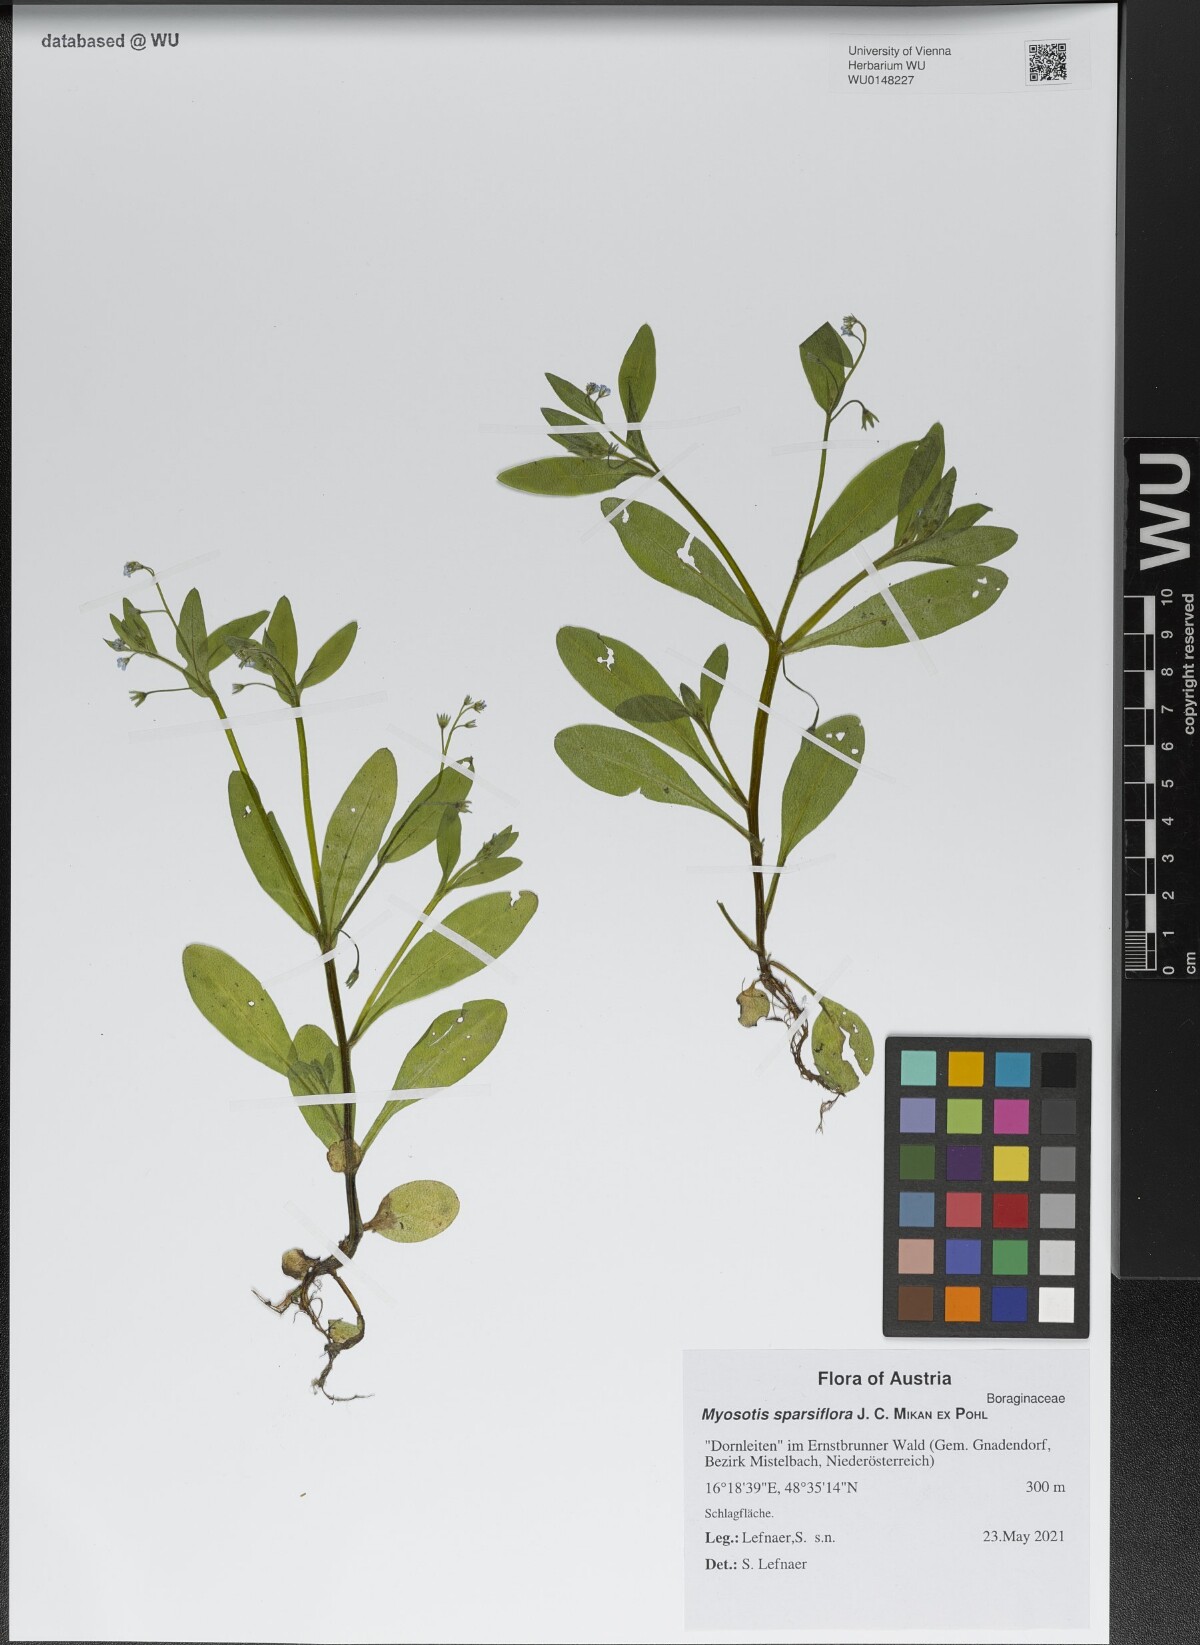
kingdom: Plantae
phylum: Tracheophyta
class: Magnoliopsida
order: Boraginales
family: Boraginaceae
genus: Myosotis
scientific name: Myosotis sparsiflora
